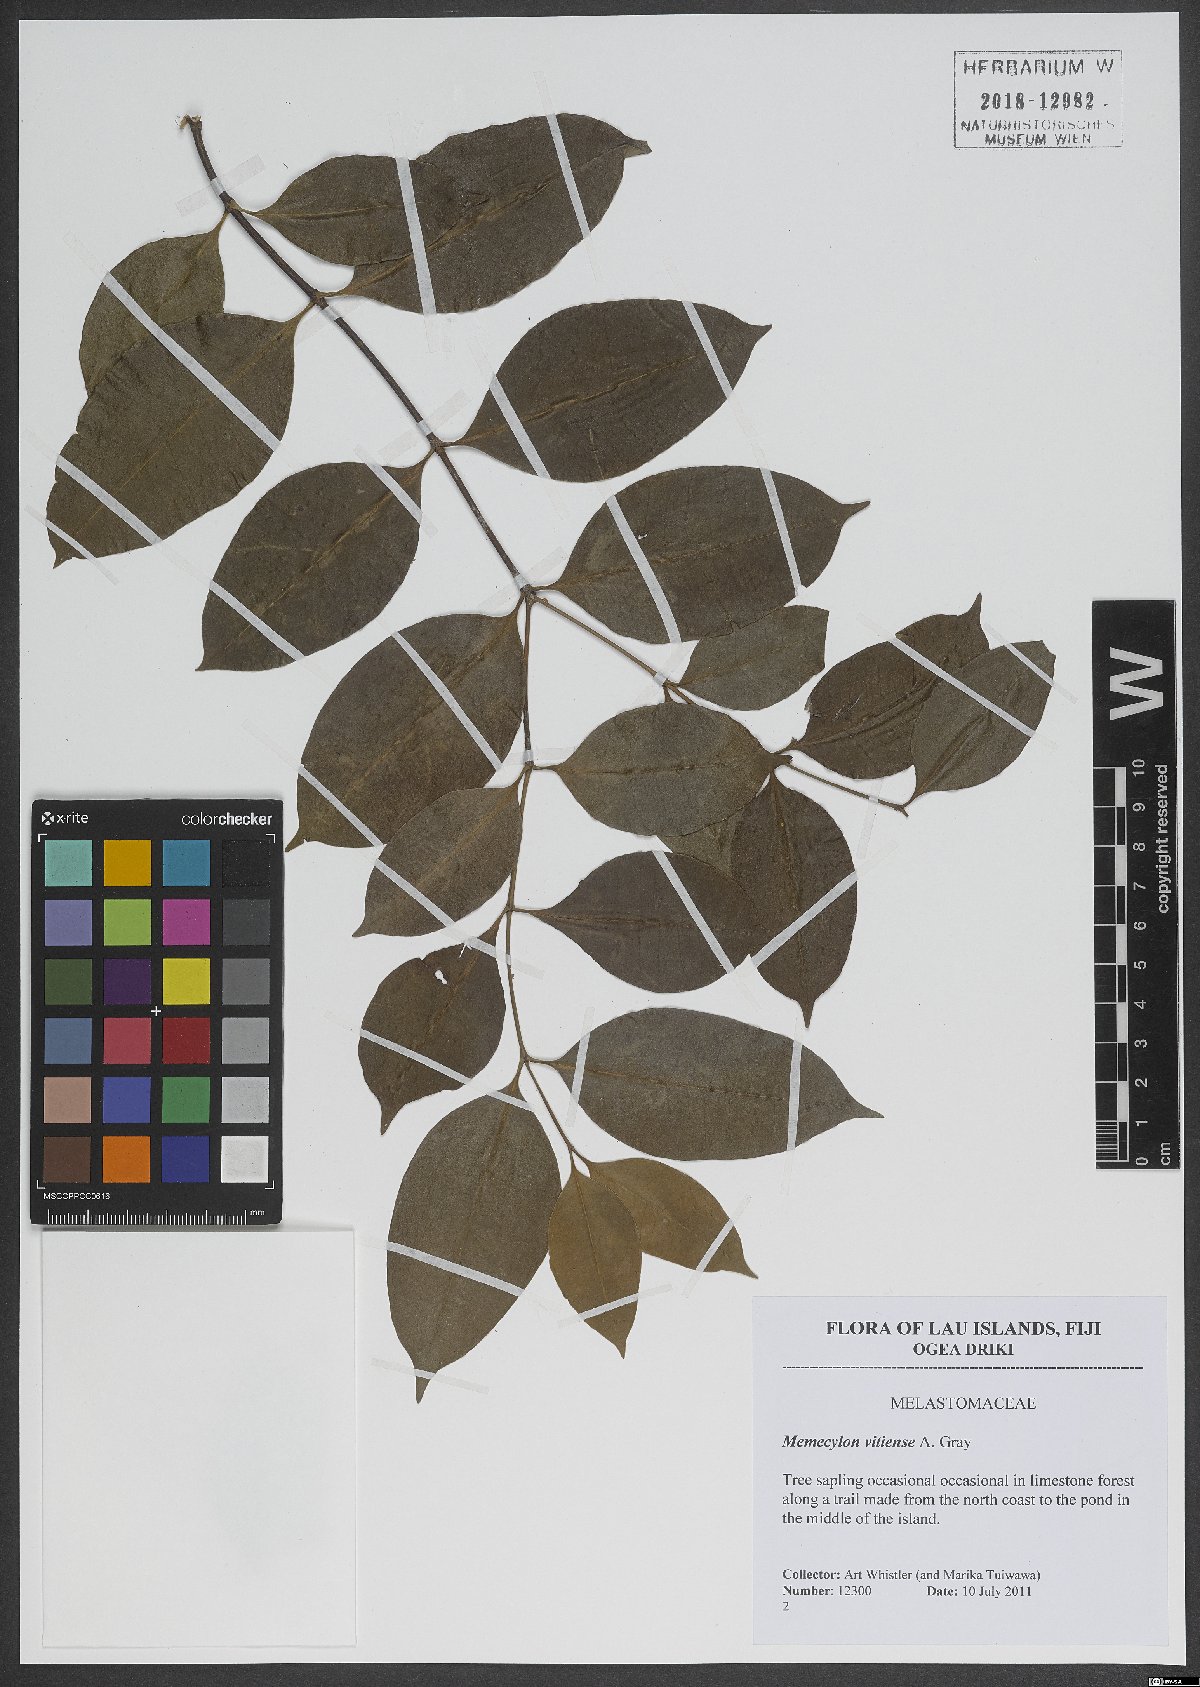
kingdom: Plantae
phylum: Tracheophyta
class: Magnoliopsida
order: Myrtales
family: Melastomataceae
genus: Memecylon
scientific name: Memecylon vitiense
